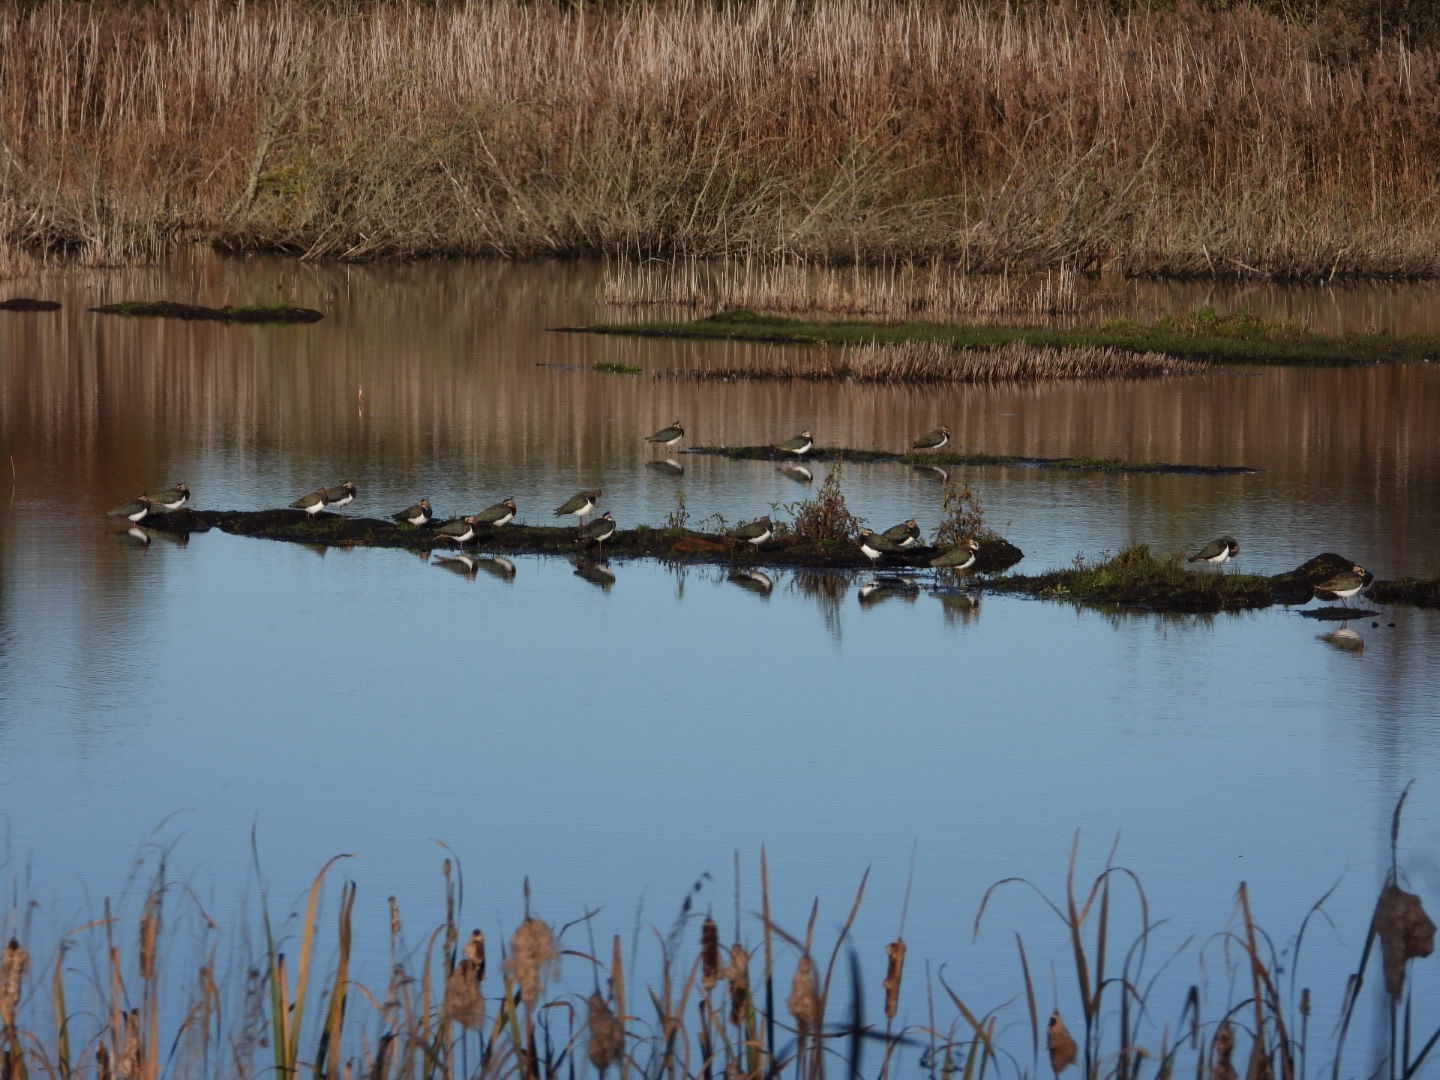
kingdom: Animalia
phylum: Chordata
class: Aves
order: Charadriiformes
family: Charadriidae
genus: Vanellus
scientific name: Vanellus vanellus
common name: Vibe
